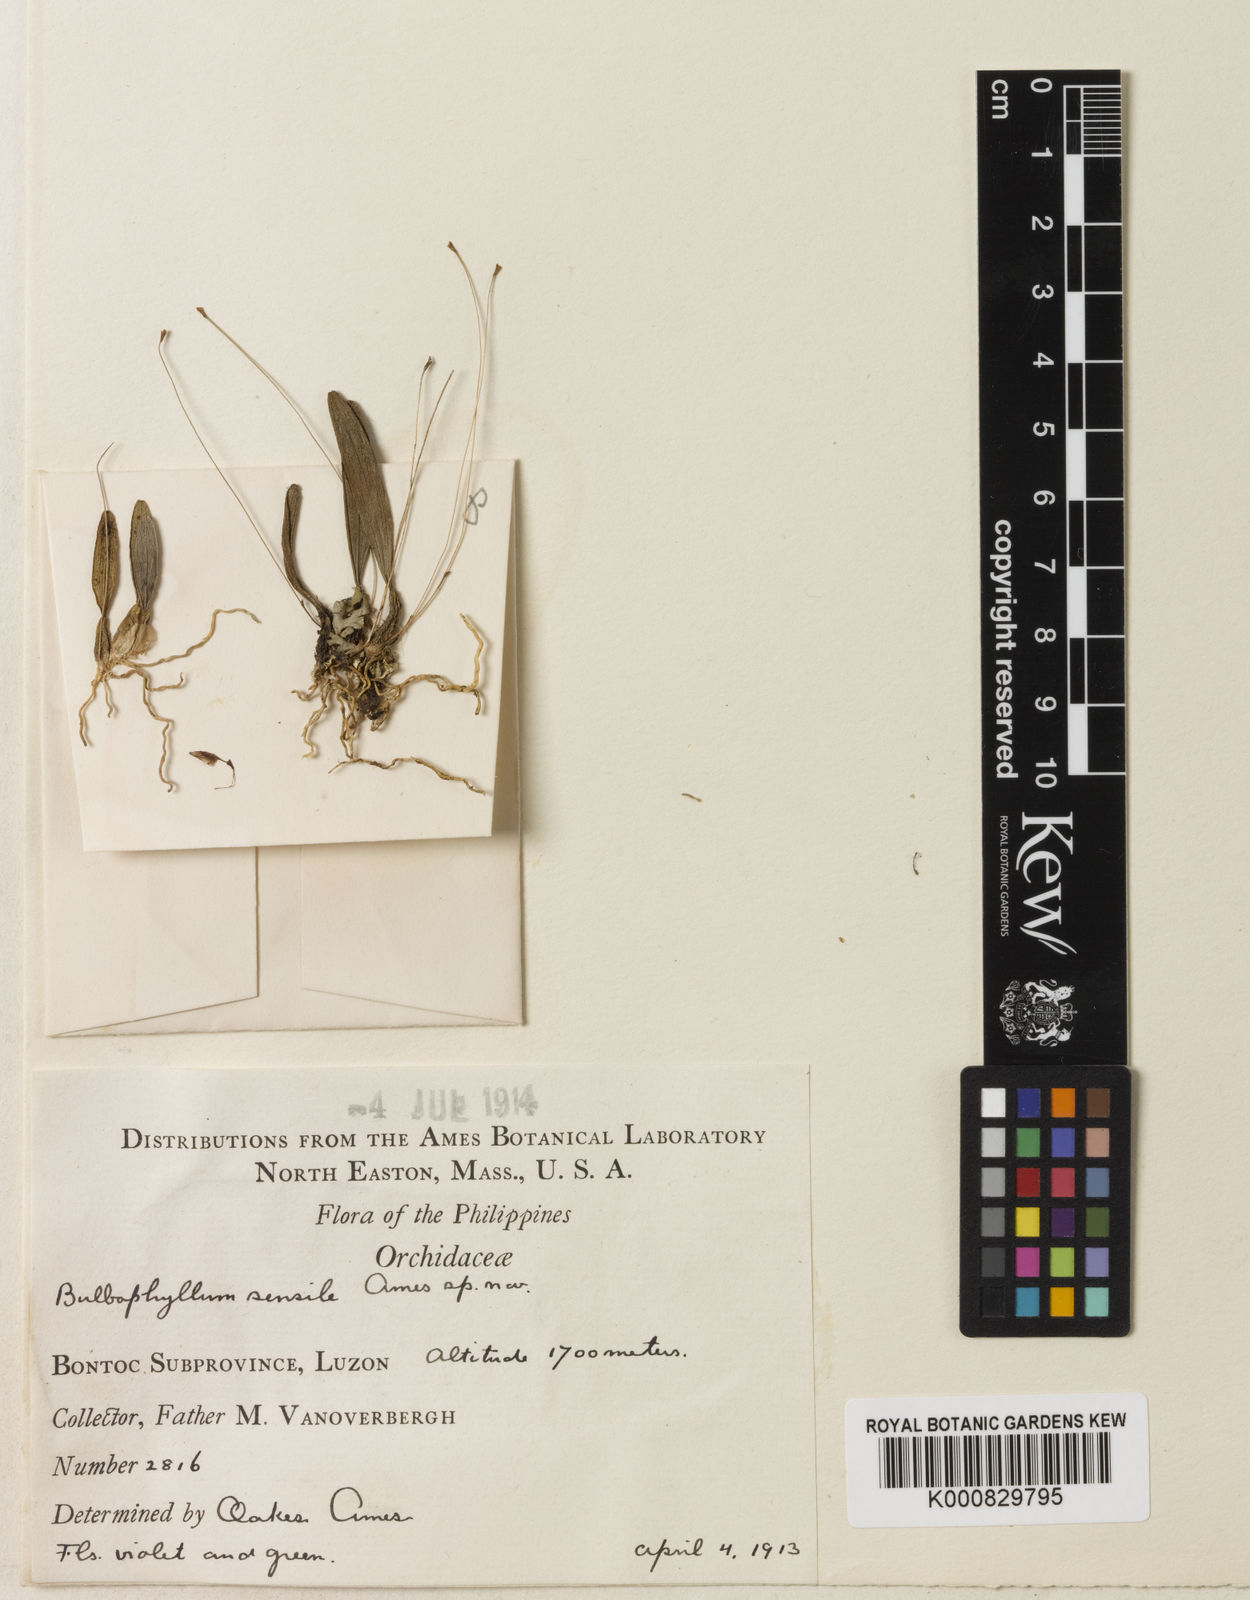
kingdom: Plantae
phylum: Tracheophyta
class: Liliopsida
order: Asparagales
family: Orchidaceae
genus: Bulbophyllum
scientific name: Bulbophyllum sensile
